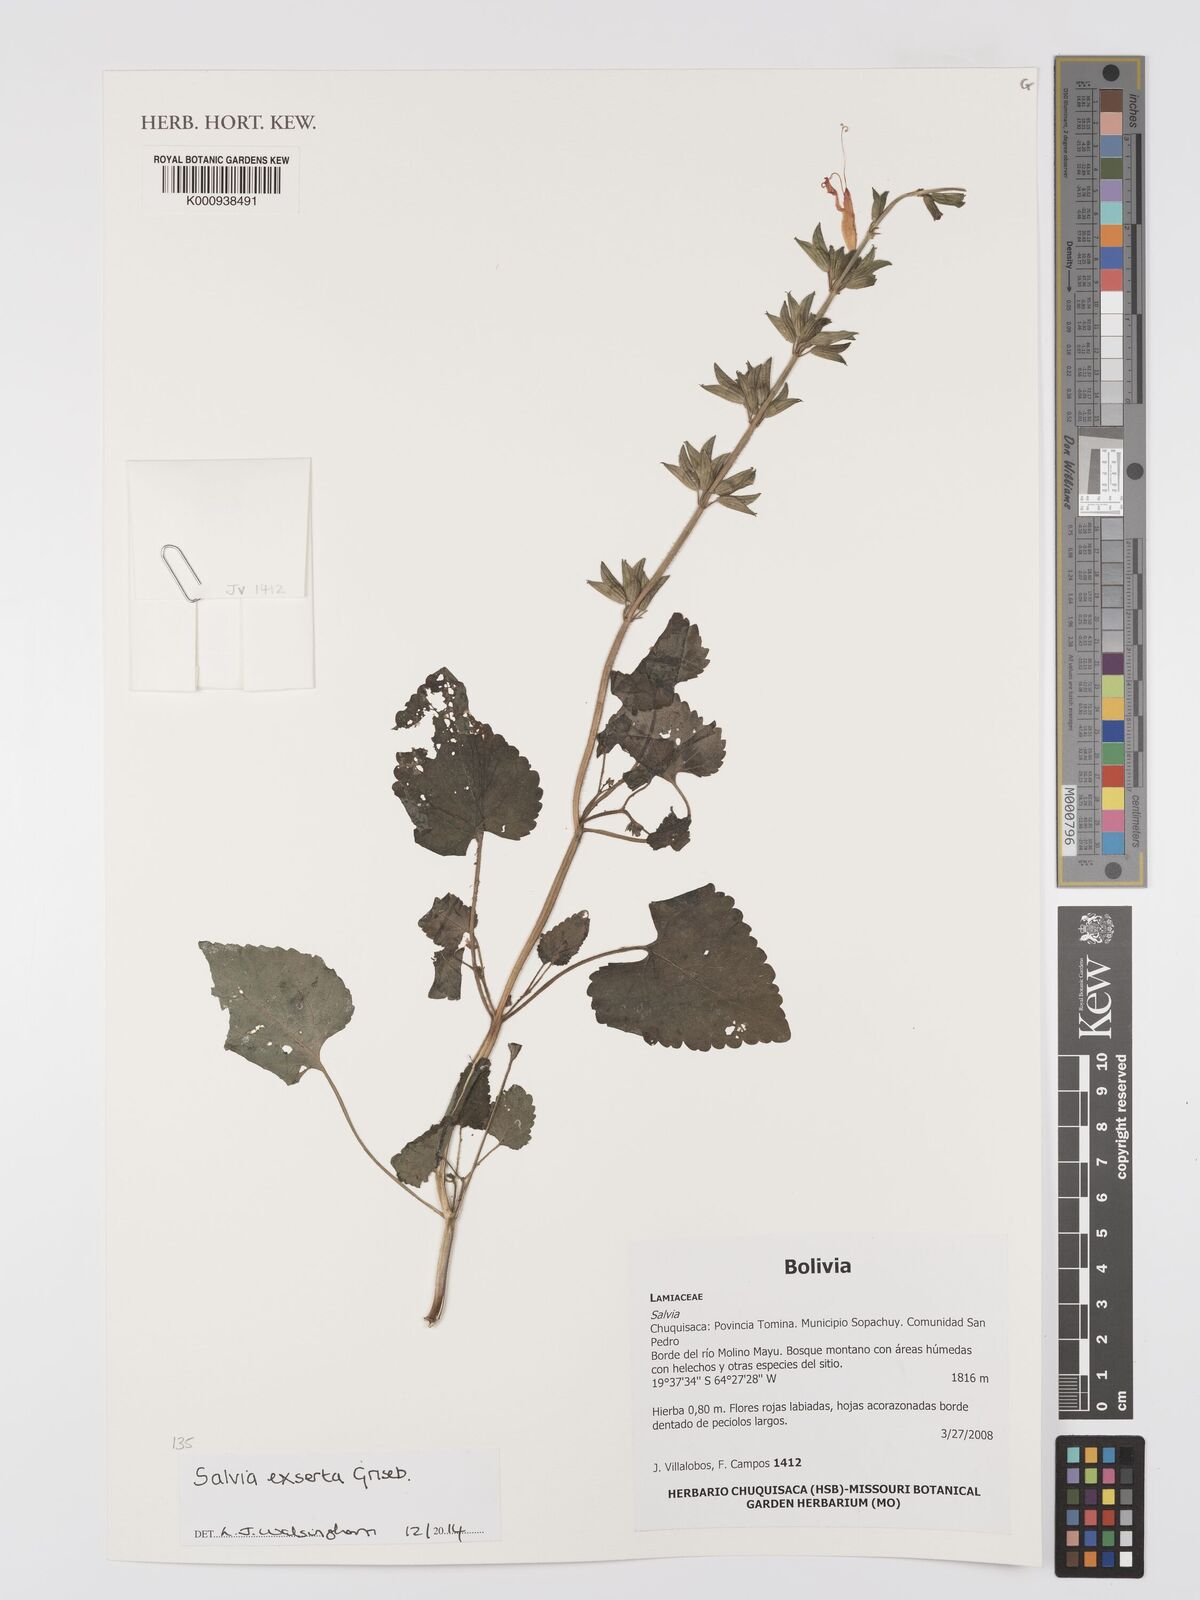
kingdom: Plantae
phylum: Tracheophyta
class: Magnoliopsida
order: Lamiales
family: Lamiaceae
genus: Salvia
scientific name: Salvia exserta
